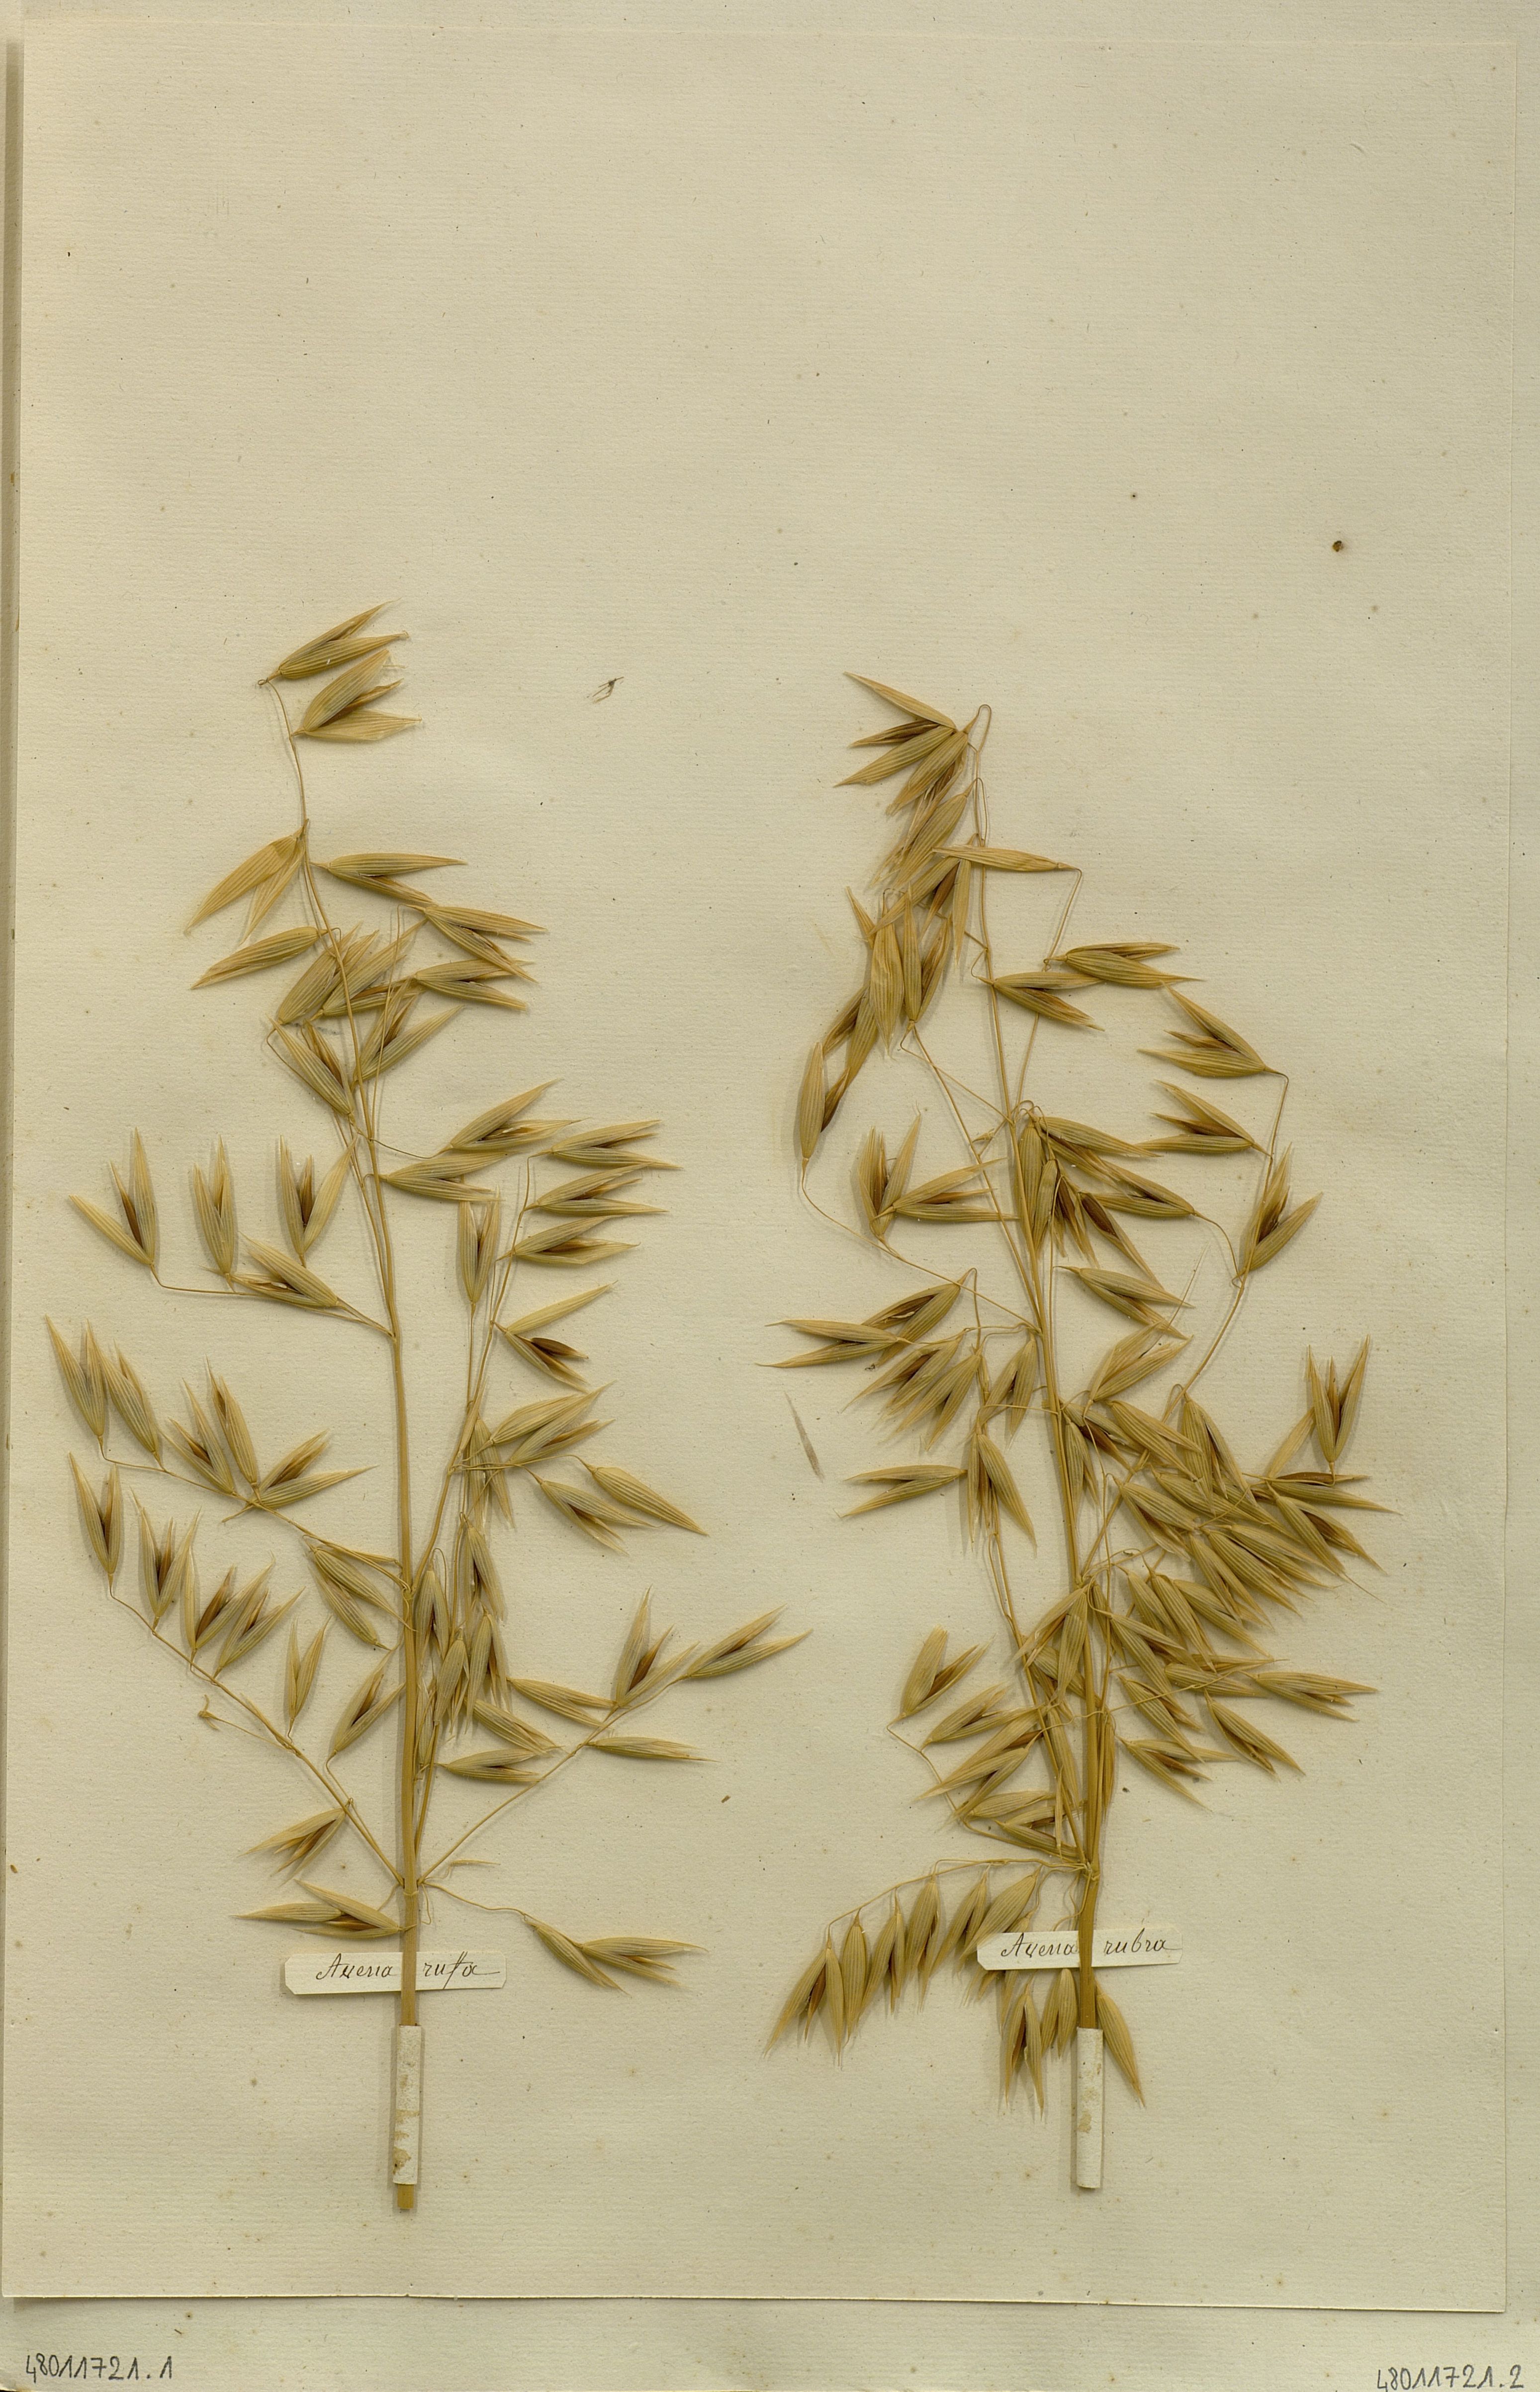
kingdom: Plantae
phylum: Tracheophyta
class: Liliopsida
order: Poales
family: Poaceae
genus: Avena
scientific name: Avena sativa
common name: Oat
